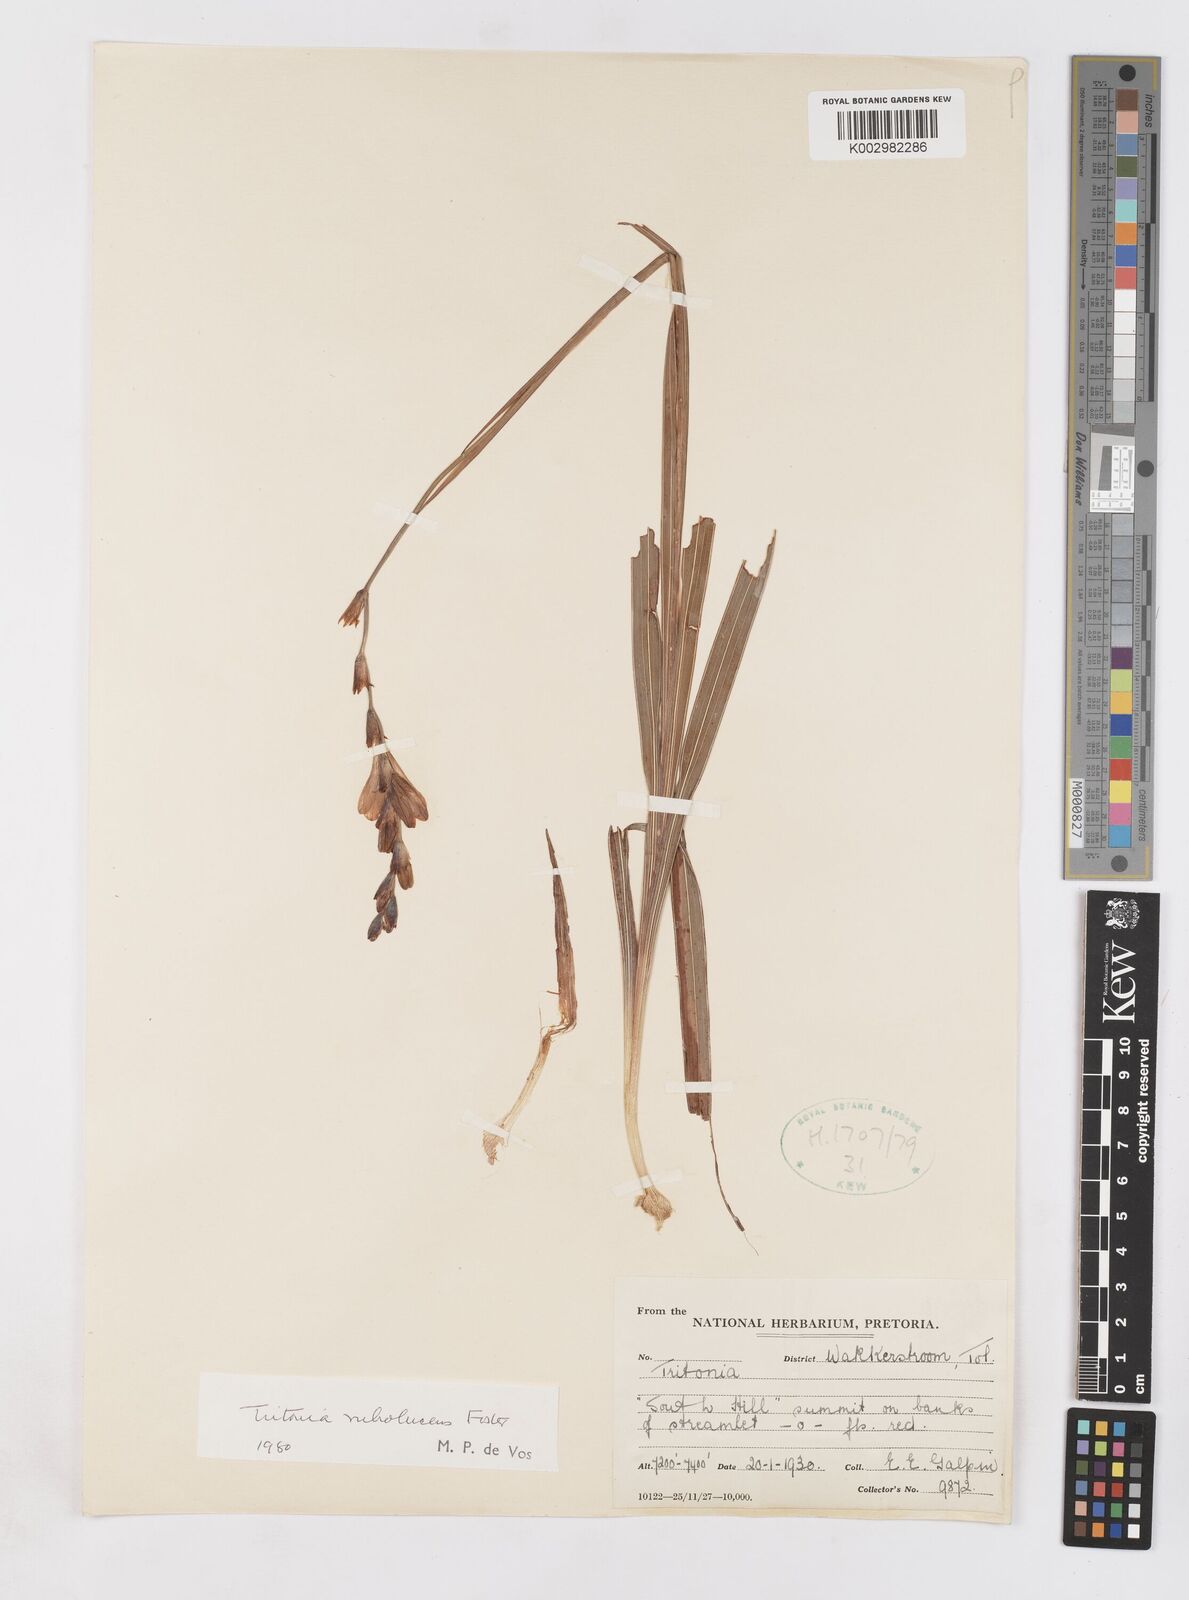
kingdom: Plantae
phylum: Tracheophyta
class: Liliopsida
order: Asparagales
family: Iridaceae
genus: Tritonia
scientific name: Tritonia disticha
